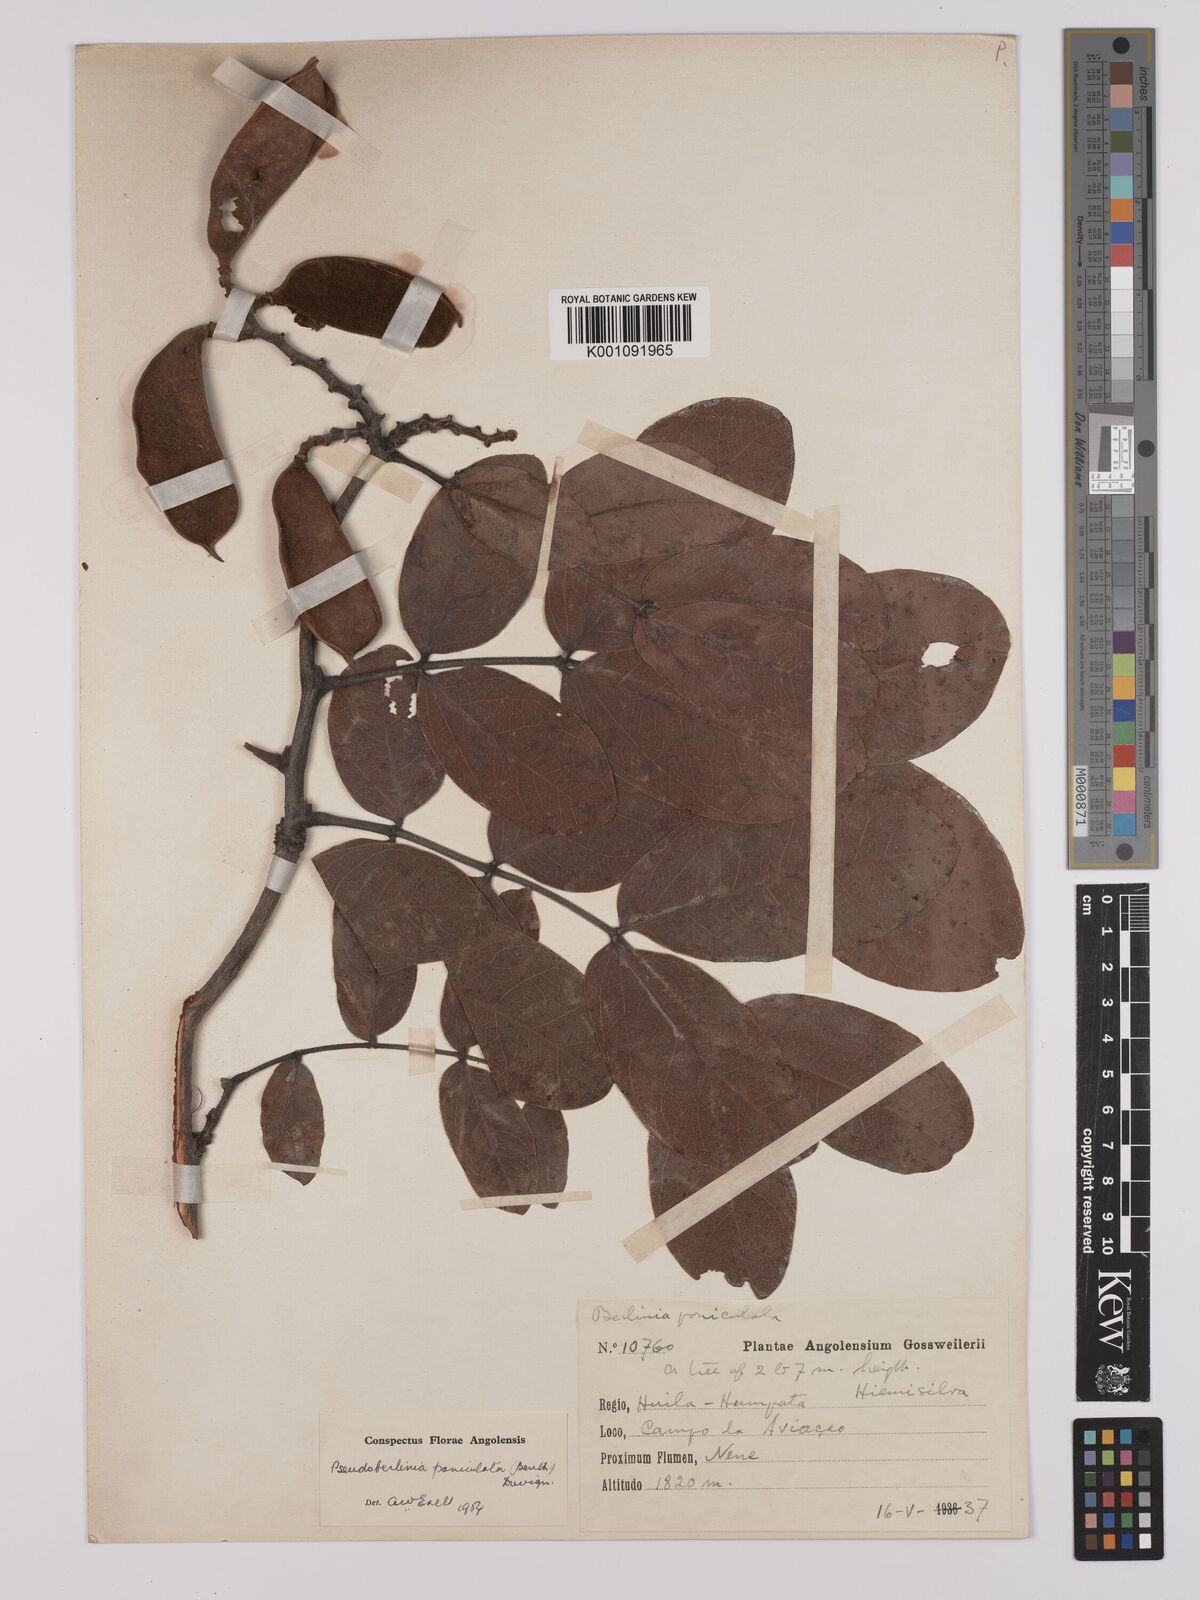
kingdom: Plantae
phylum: Tracheophyta
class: Magnoliopsida
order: Fabales
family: Fabaceae
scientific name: Fabaceae
